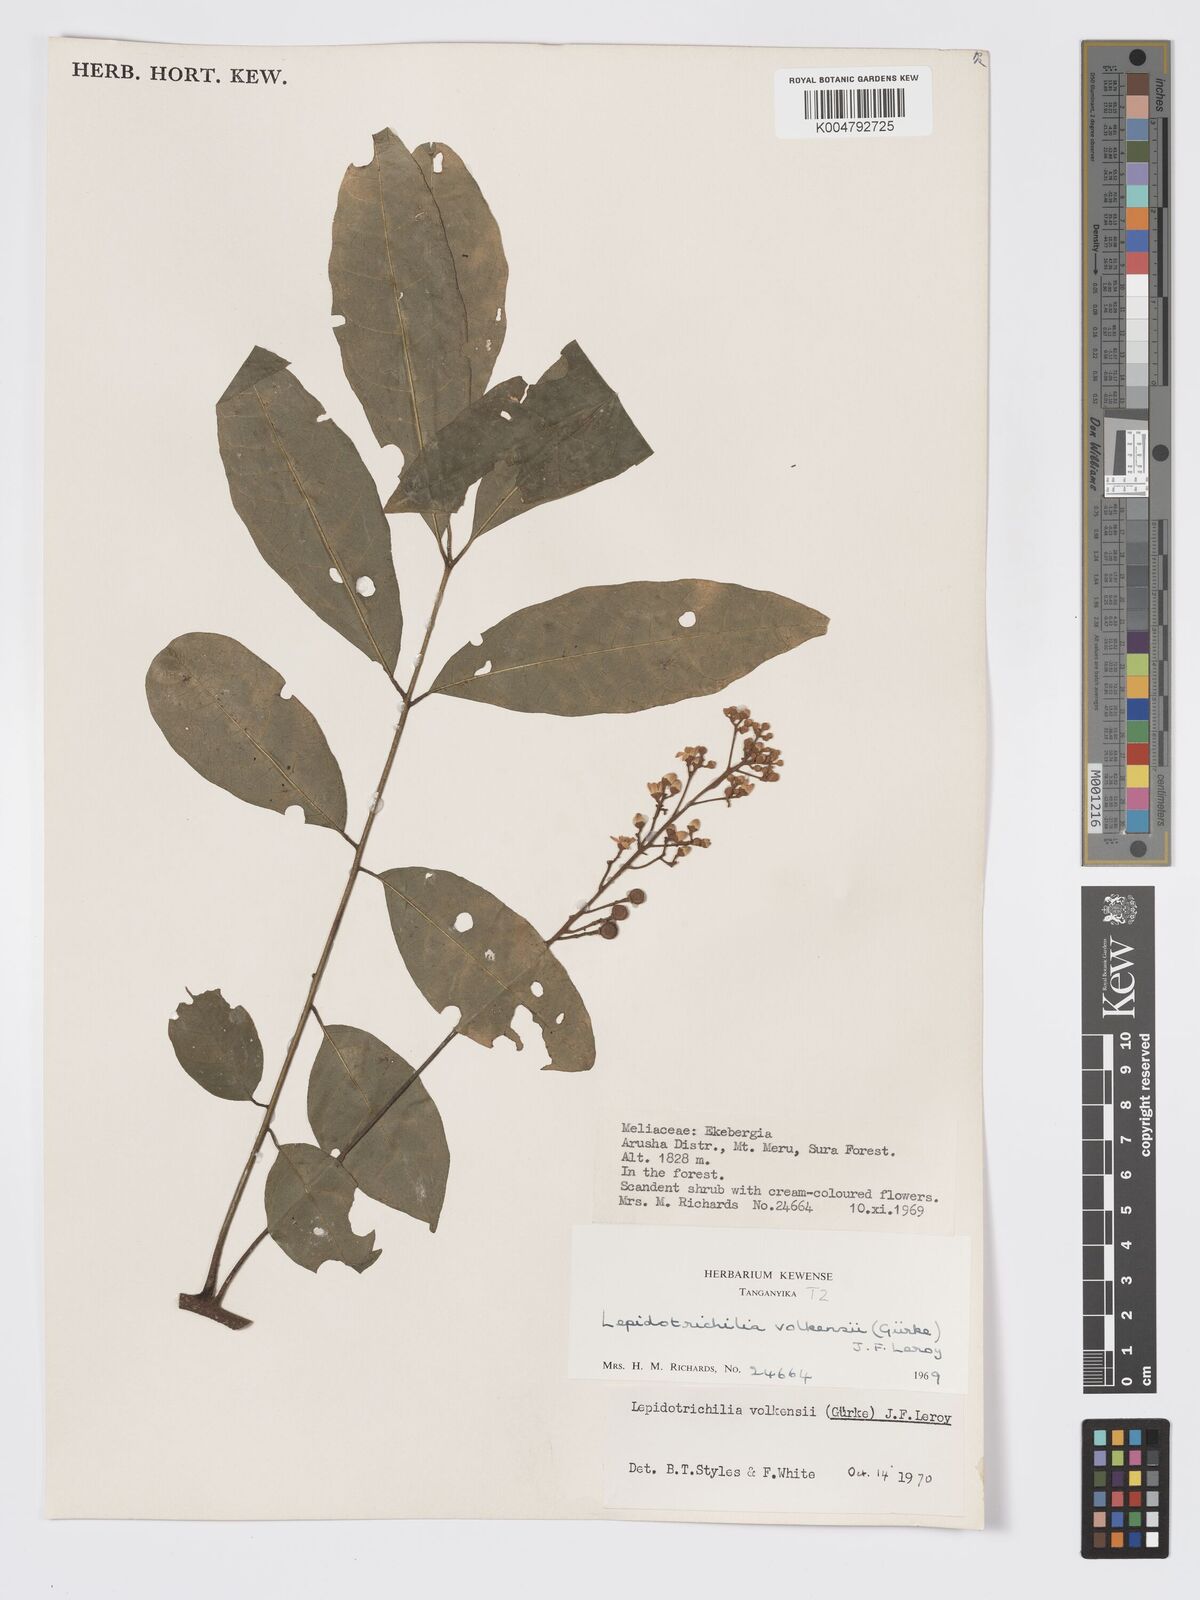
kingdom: Plantae
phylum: Tracheophyta
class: Magnoliopsida
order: Sapindales
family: Meliaceae
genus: Lepidotrichilia
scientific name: Lepidotrichilia volkensii
